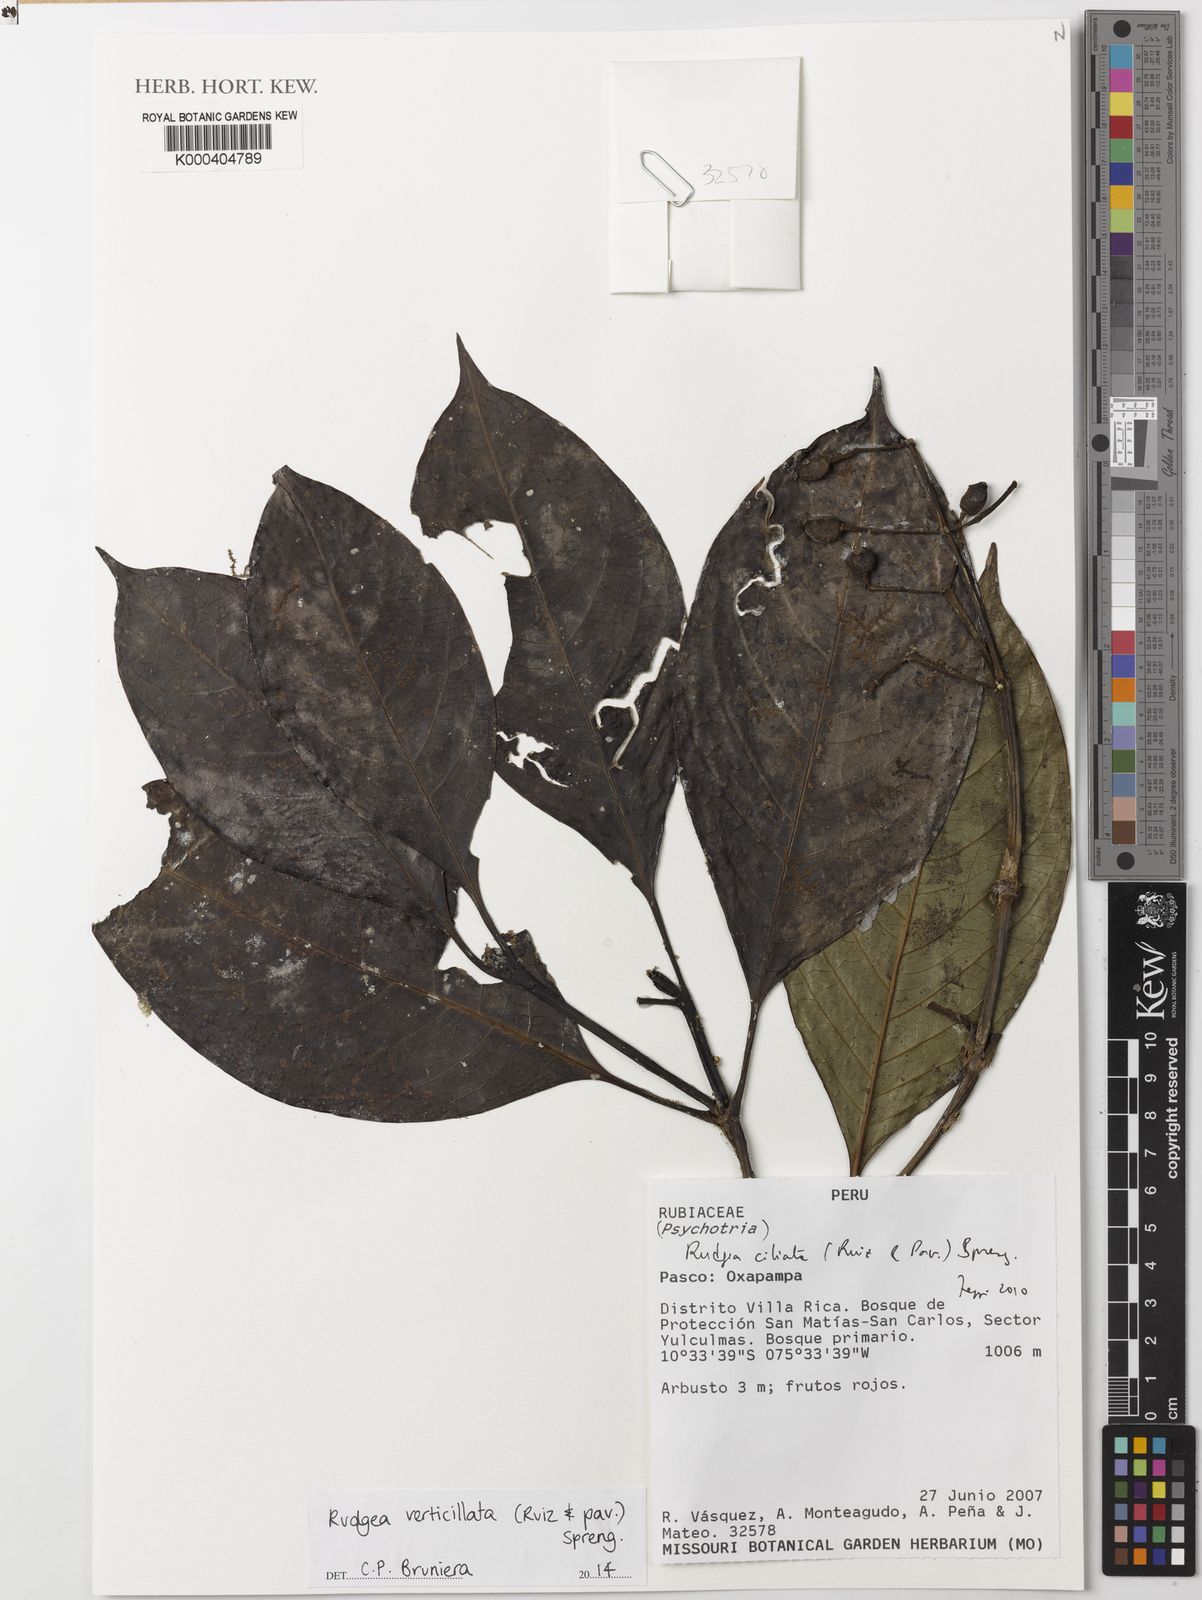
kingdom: Plantae
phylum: Tracheophyta
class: Magnoliopsida
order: Gentianales
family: Rubiaceae
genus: Rudgea
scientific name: Rudgea verticillata
